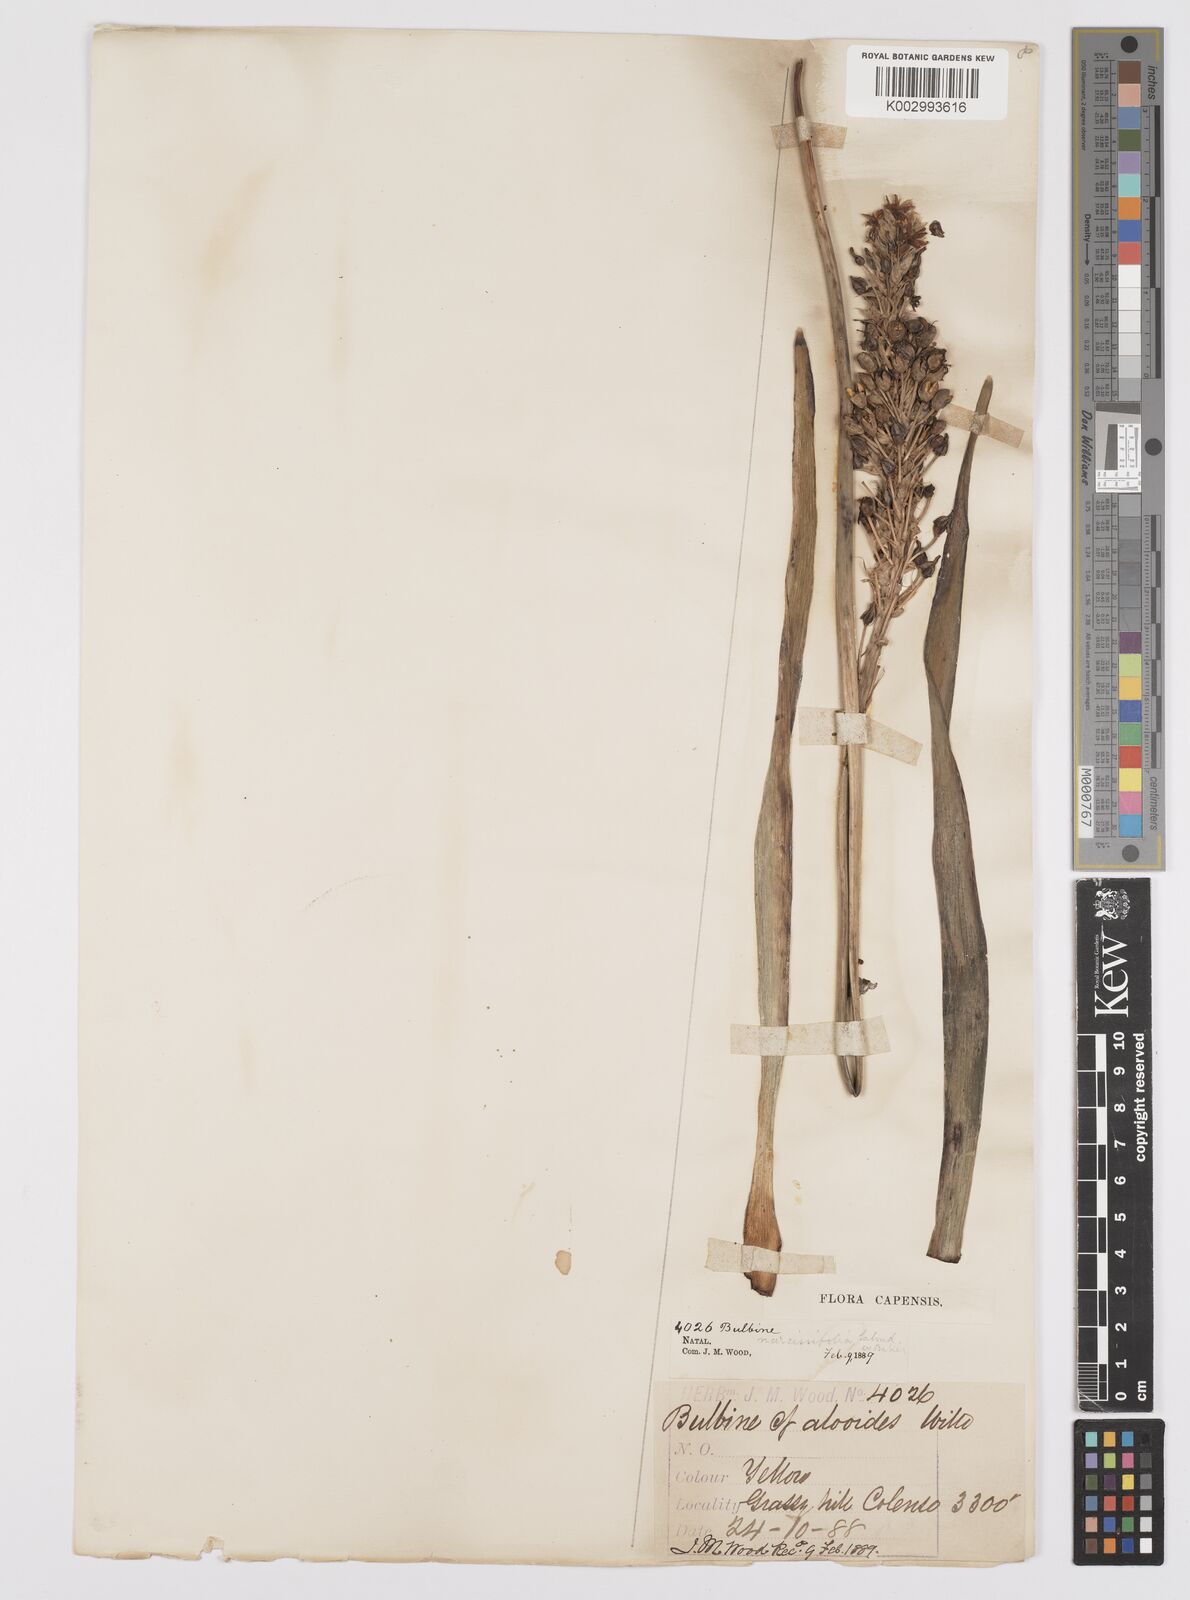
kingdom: Plantae
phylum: Tracheophyta
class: Liliopsida
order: Asparagales
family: Asphodelaceae
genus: Bulbine
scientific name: Bulbine narcissifolia
